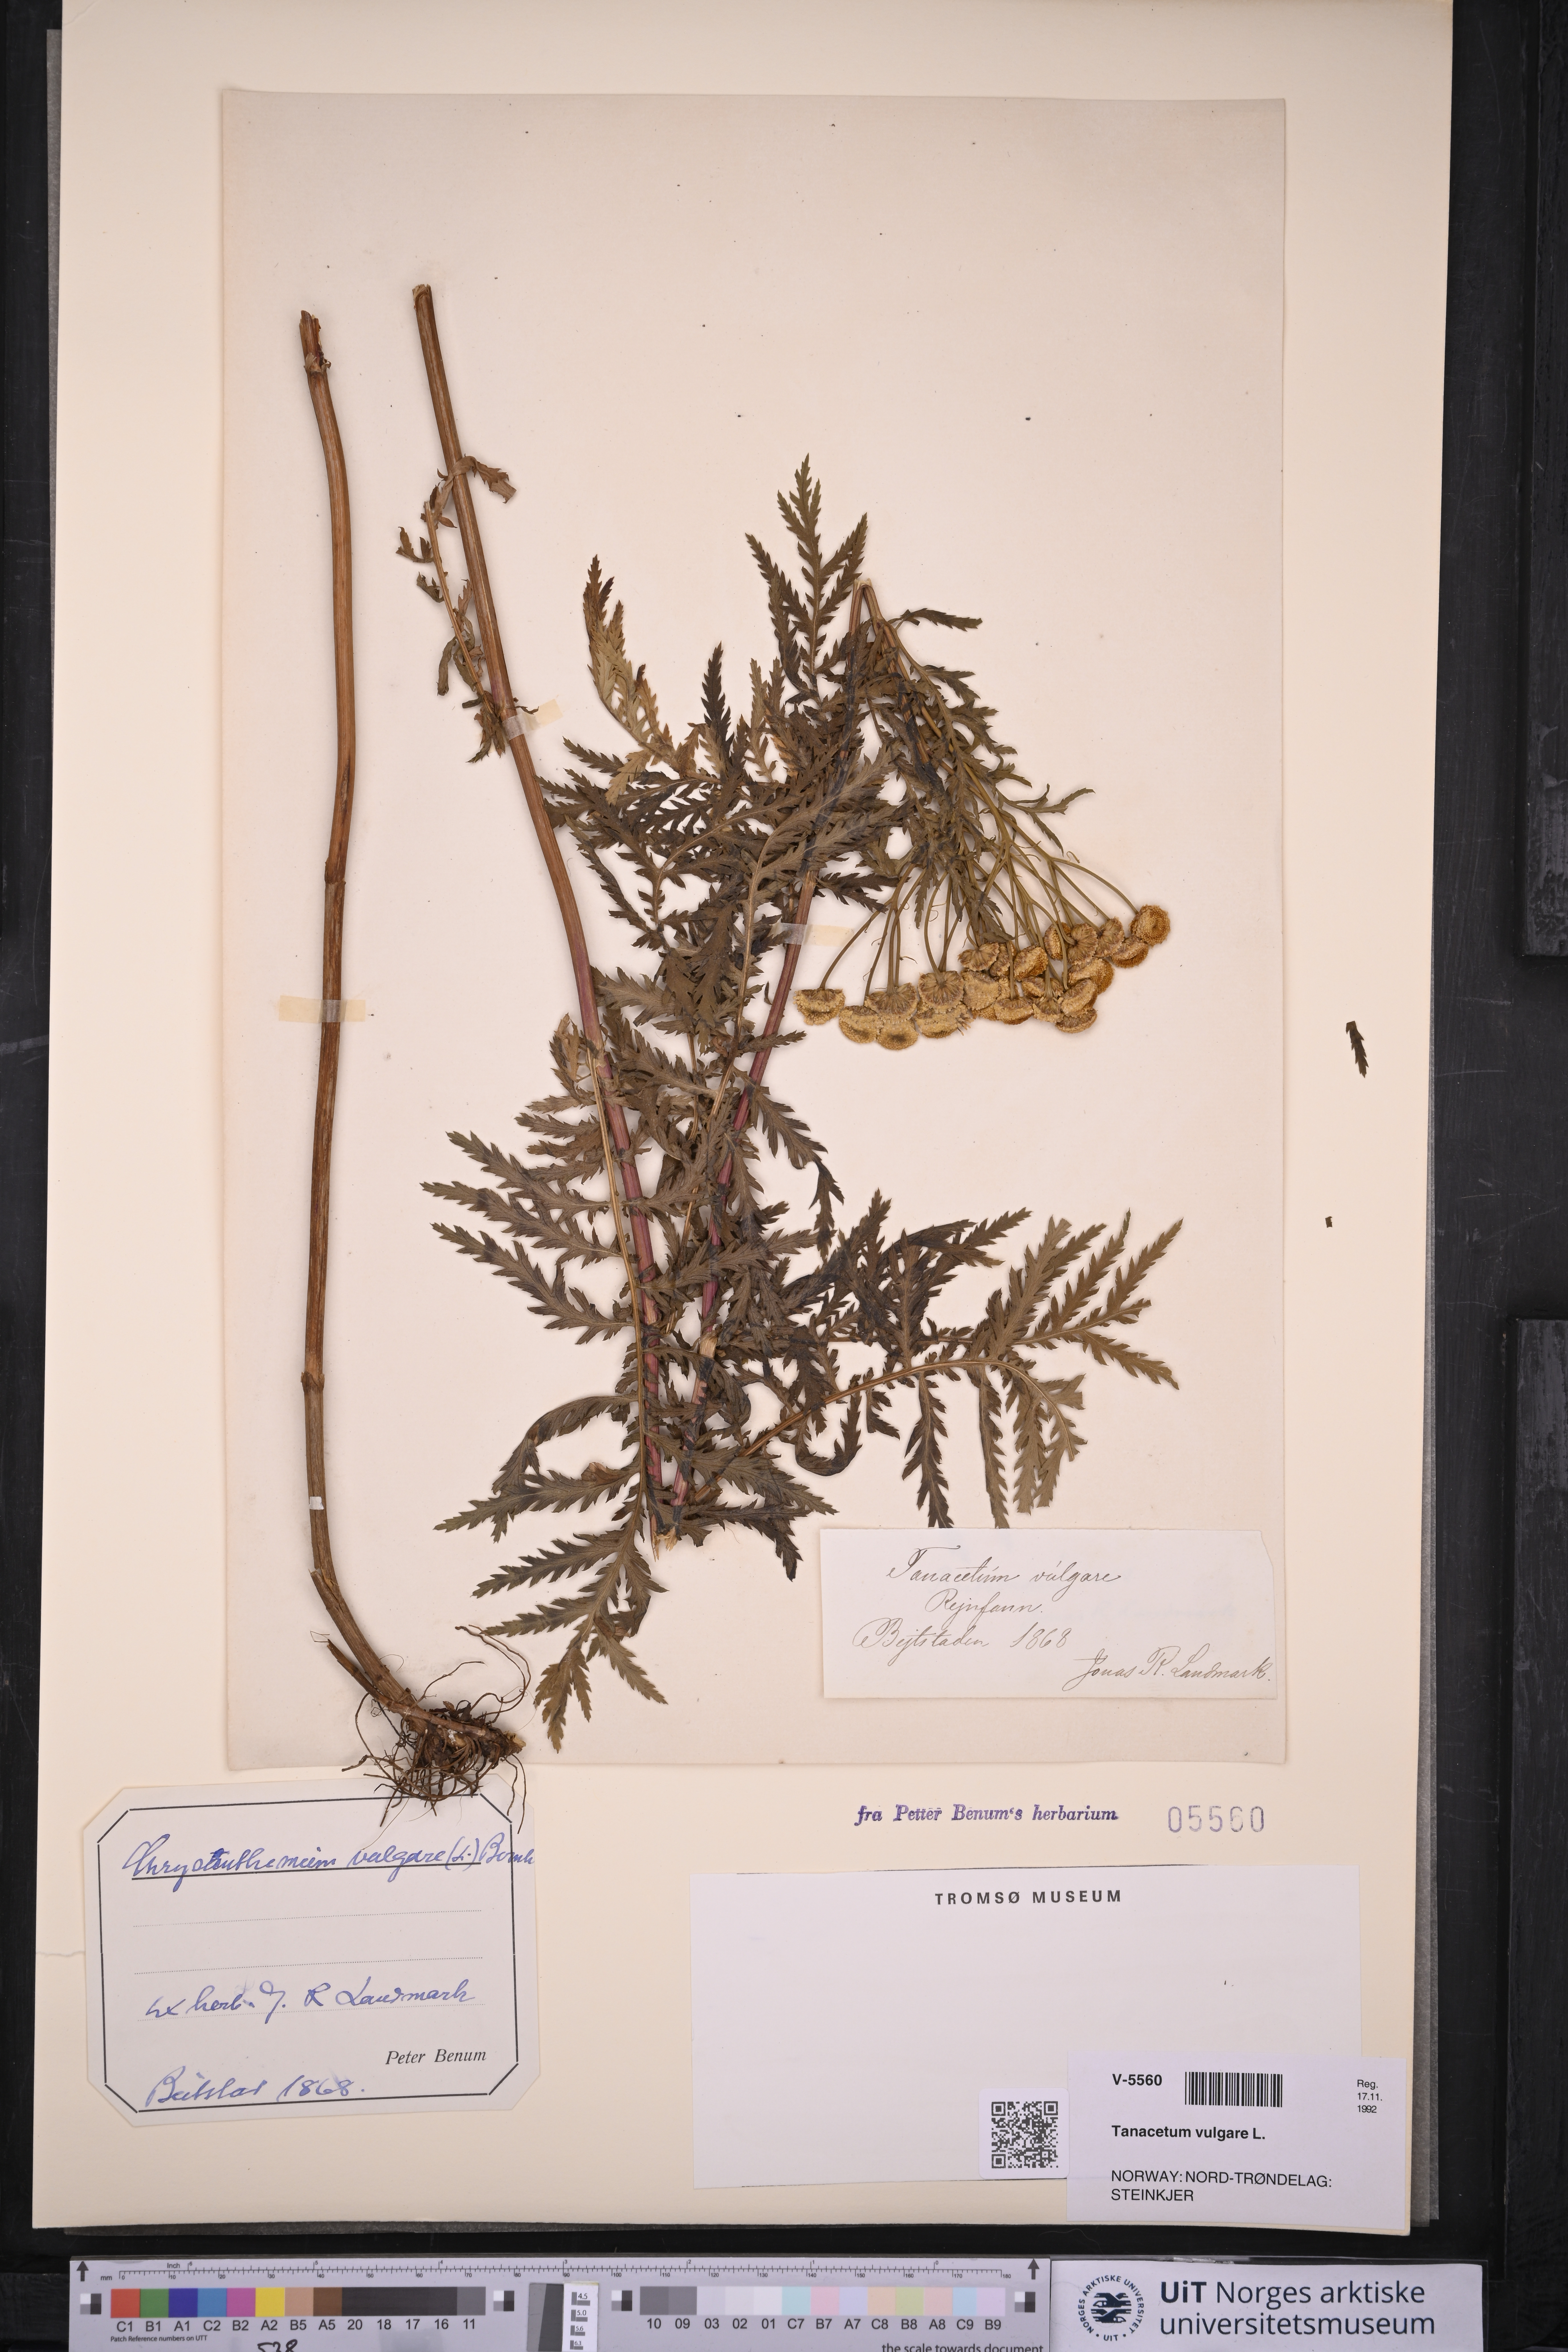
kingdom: Plantae
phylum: Tracheophyta
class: Magnoliopsida
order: Asterales
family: Asteraceae
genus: Tanacetum
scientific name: Tanacetum vulgare
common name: Common tansy
